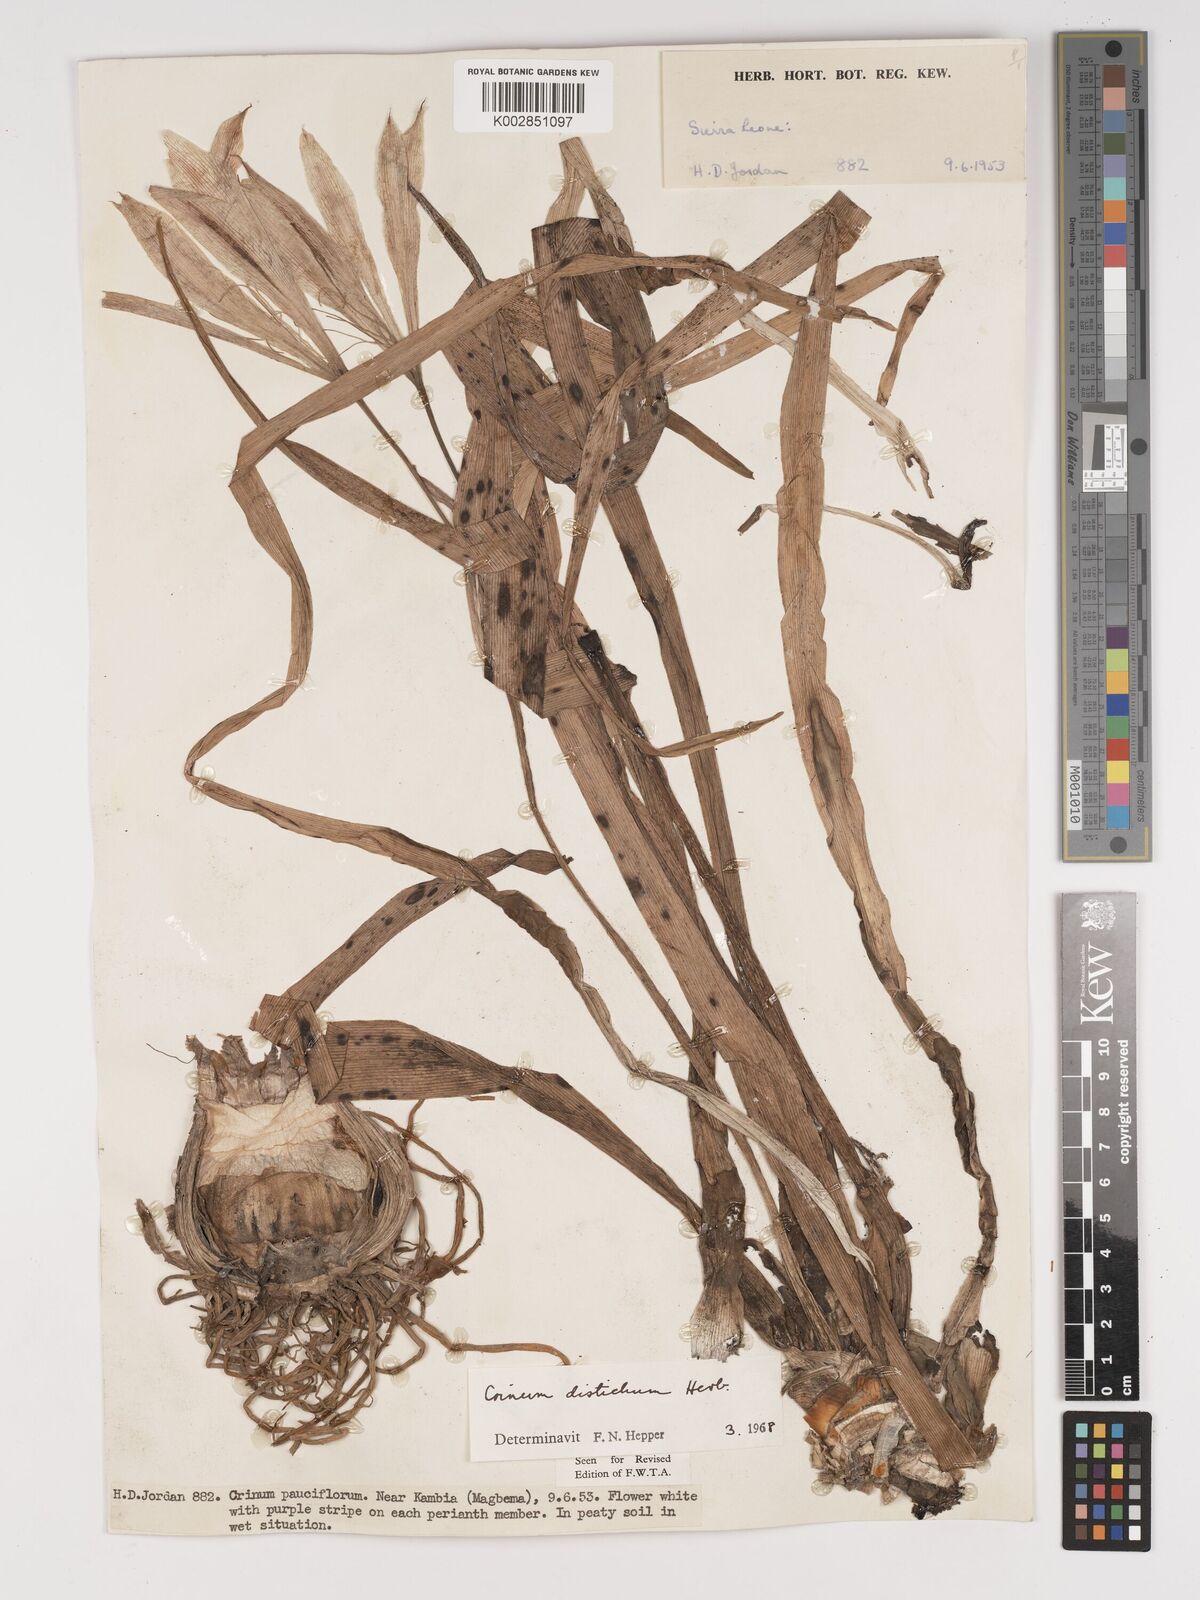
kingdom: Plantae
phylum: Tracheophyta
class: Liliopsida
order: Asparagales
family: Amaryllidaceae
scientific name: Amaryllidaceae
